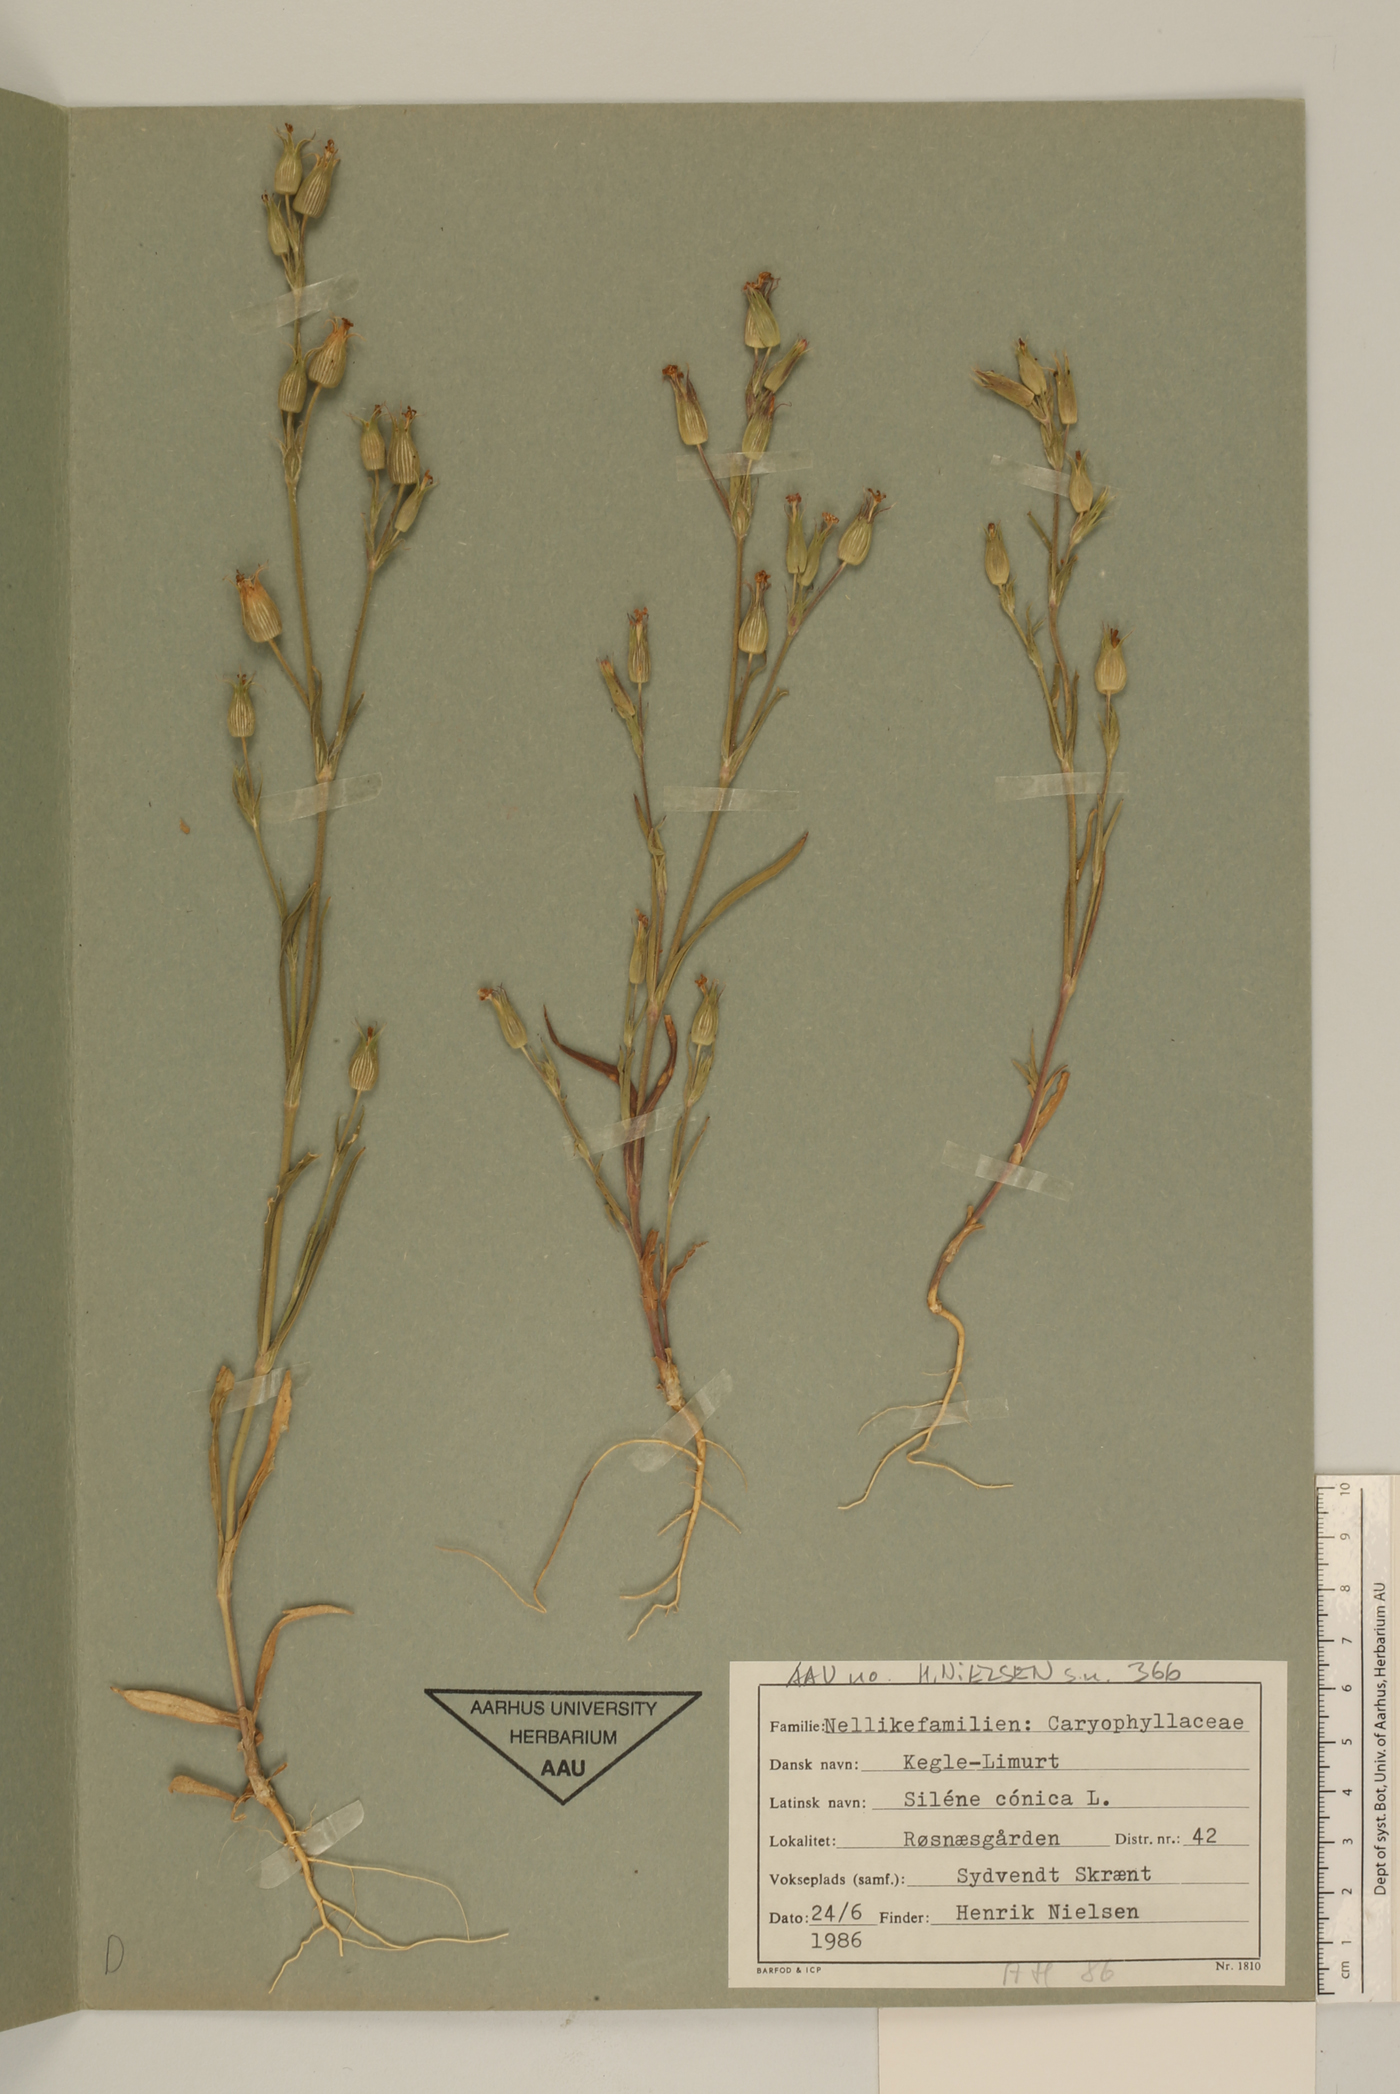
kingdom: Plantae
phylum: Tracheophyta
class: Magnoliopsida
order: Caryophyllales
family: Caryophyllaceae
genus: Silene
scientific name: Silene conica
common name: Sand catchfly
